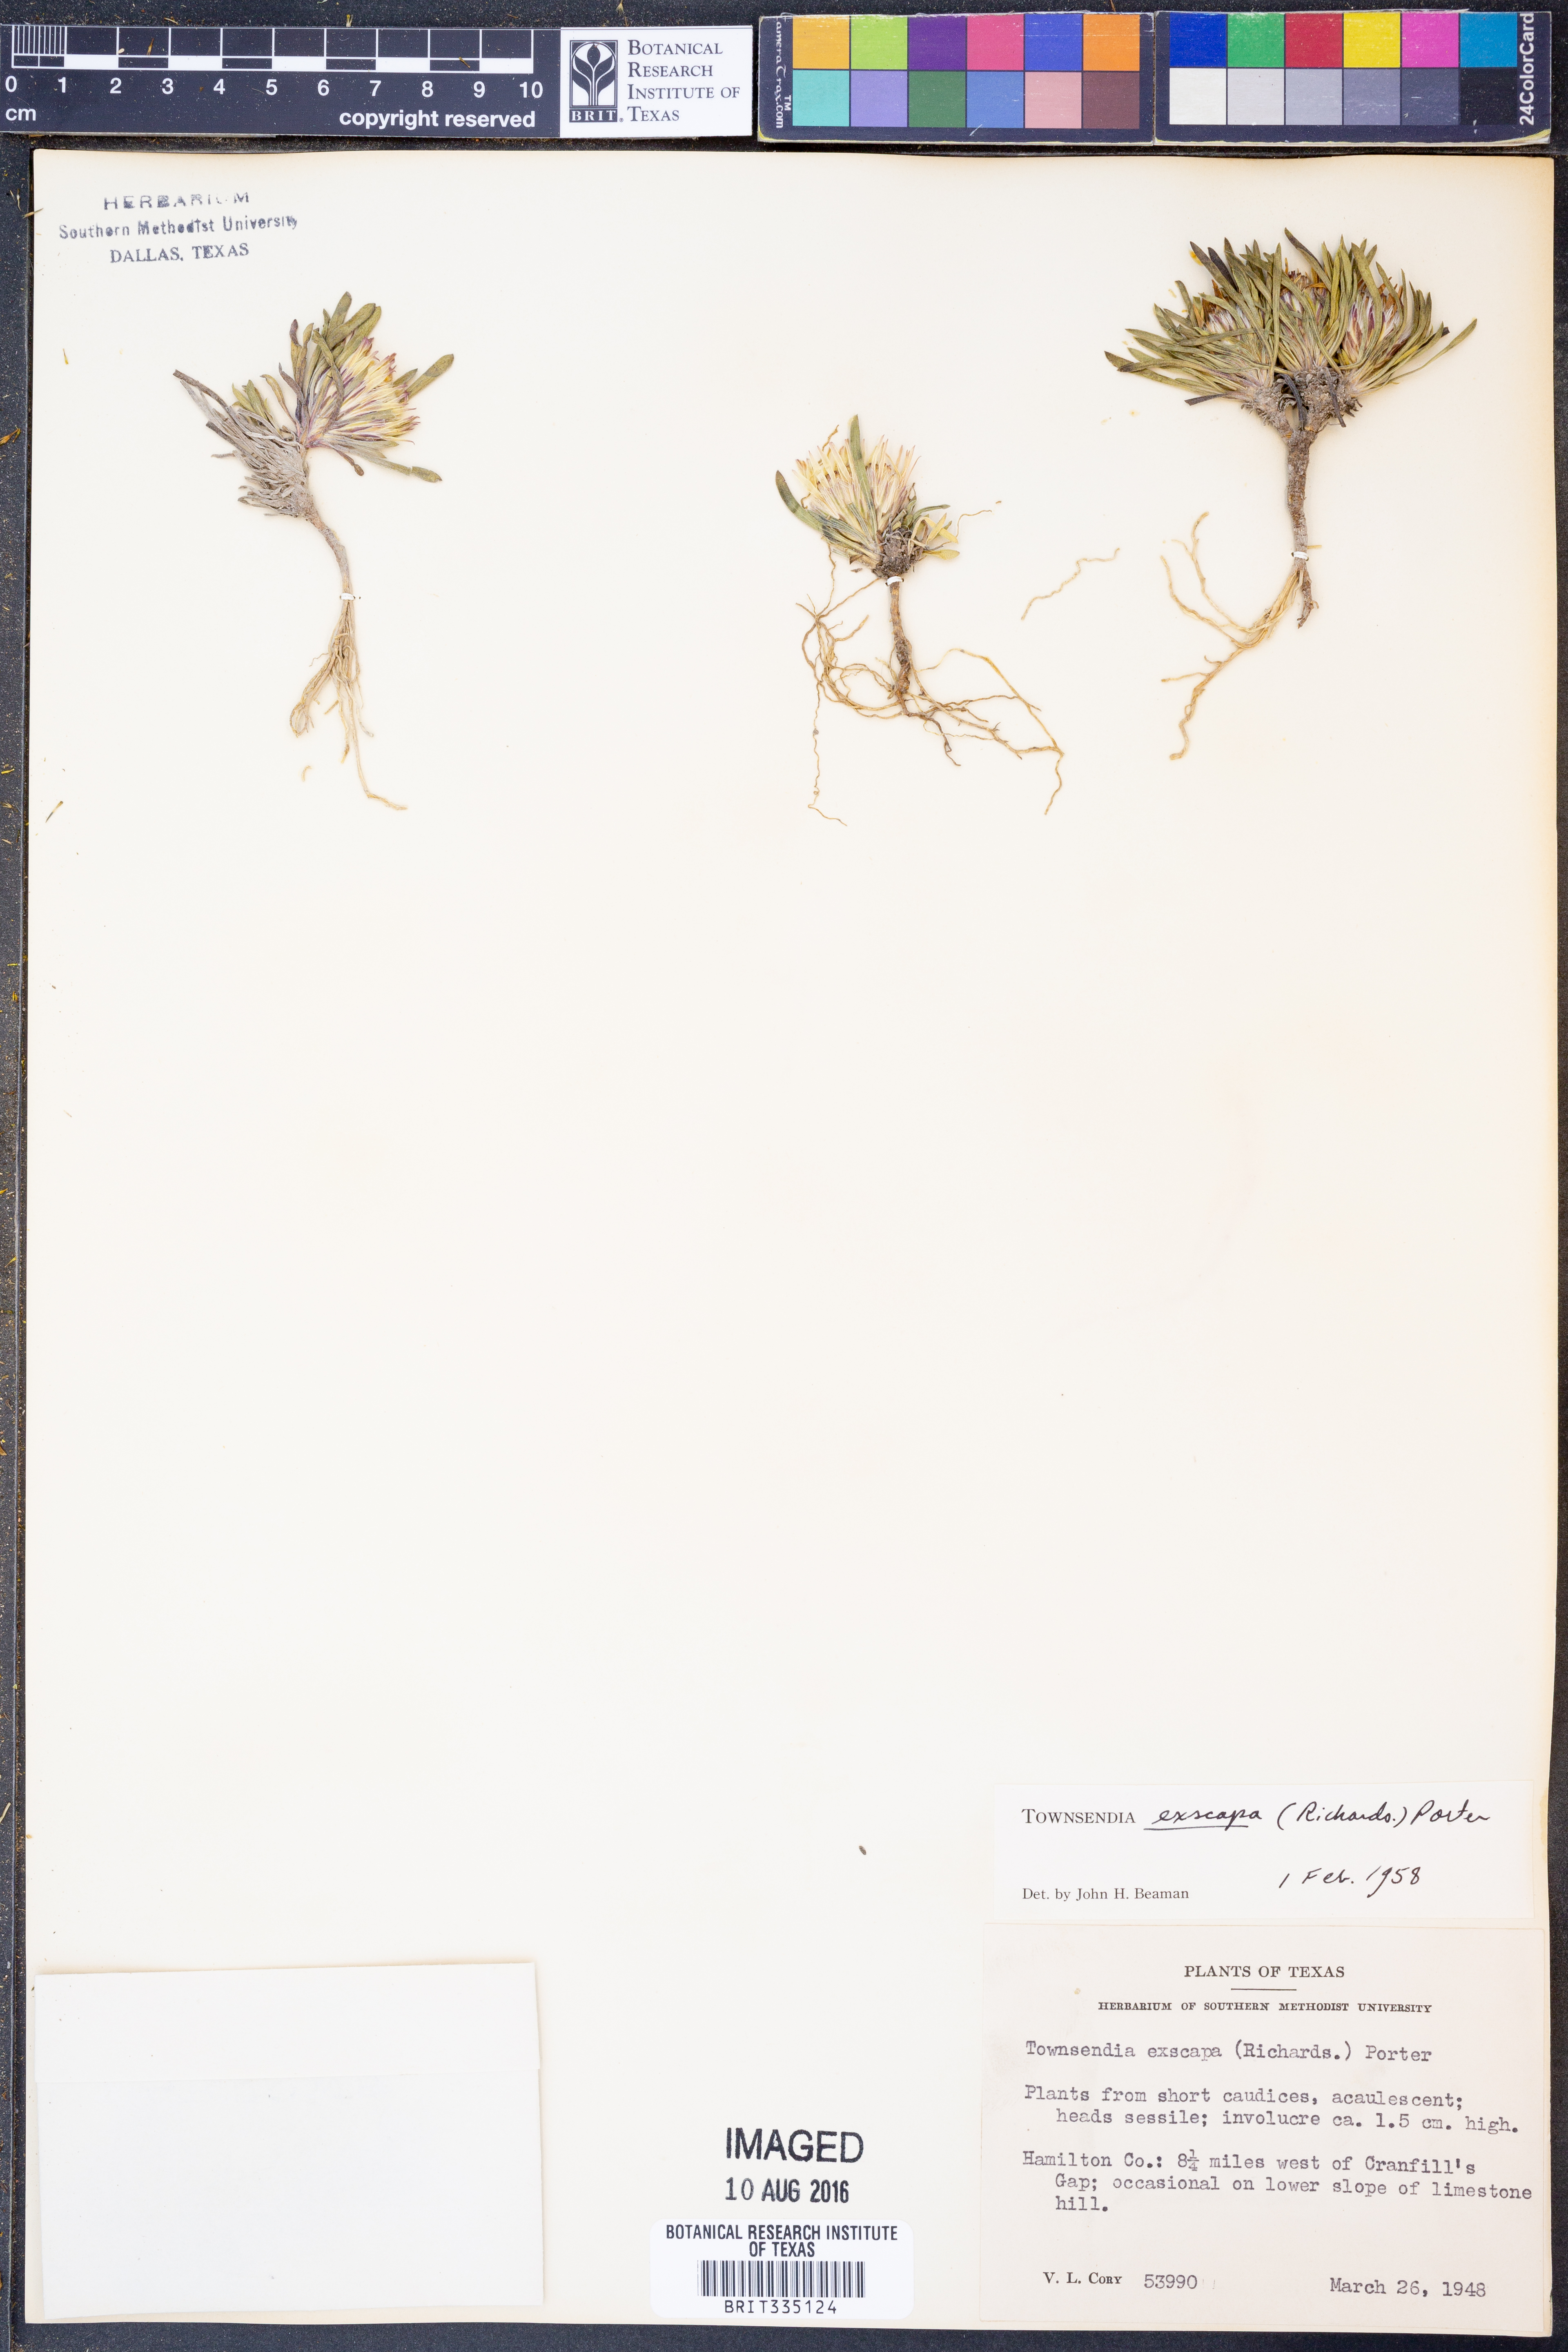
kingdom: Plantae
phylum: Tracheophyta
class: Magnoliopsida
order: Asterales
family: Asteraceae
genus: Townsendia
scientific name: Townsendia exscapa
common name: Dwarf townsendia
